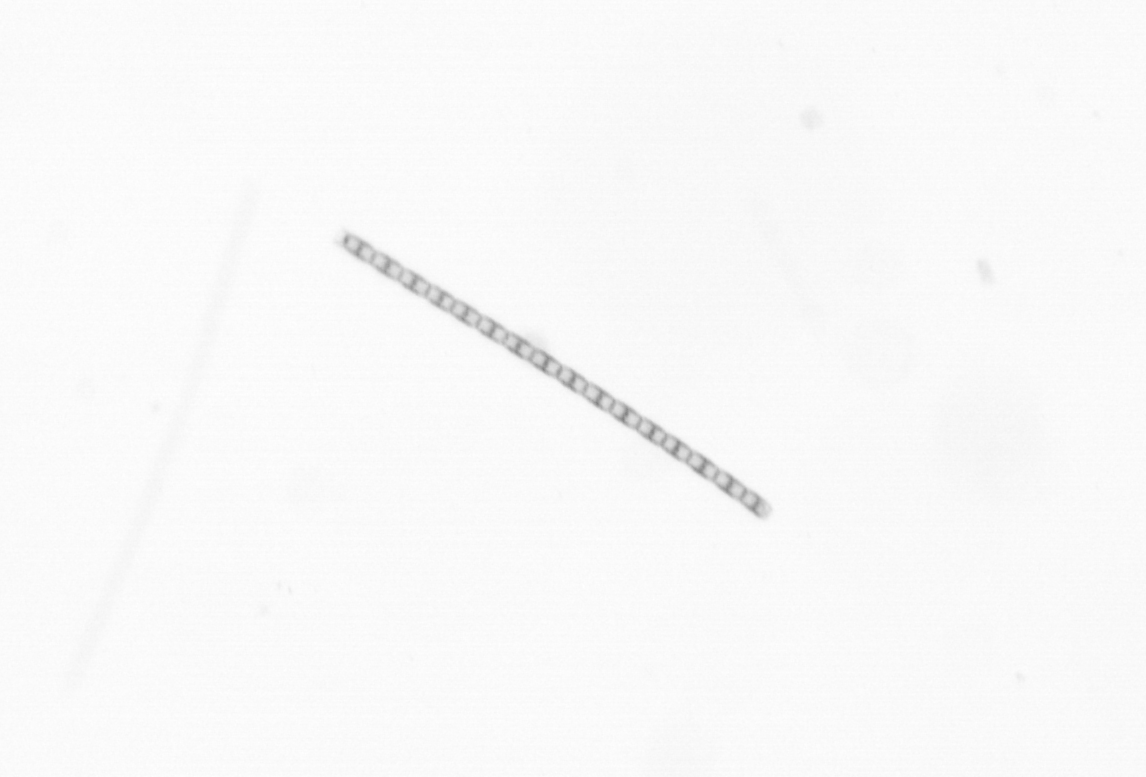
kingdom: Chromista
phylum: Ochrophyta
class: Bacillariophyceae
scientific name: Bacillariophyceae
